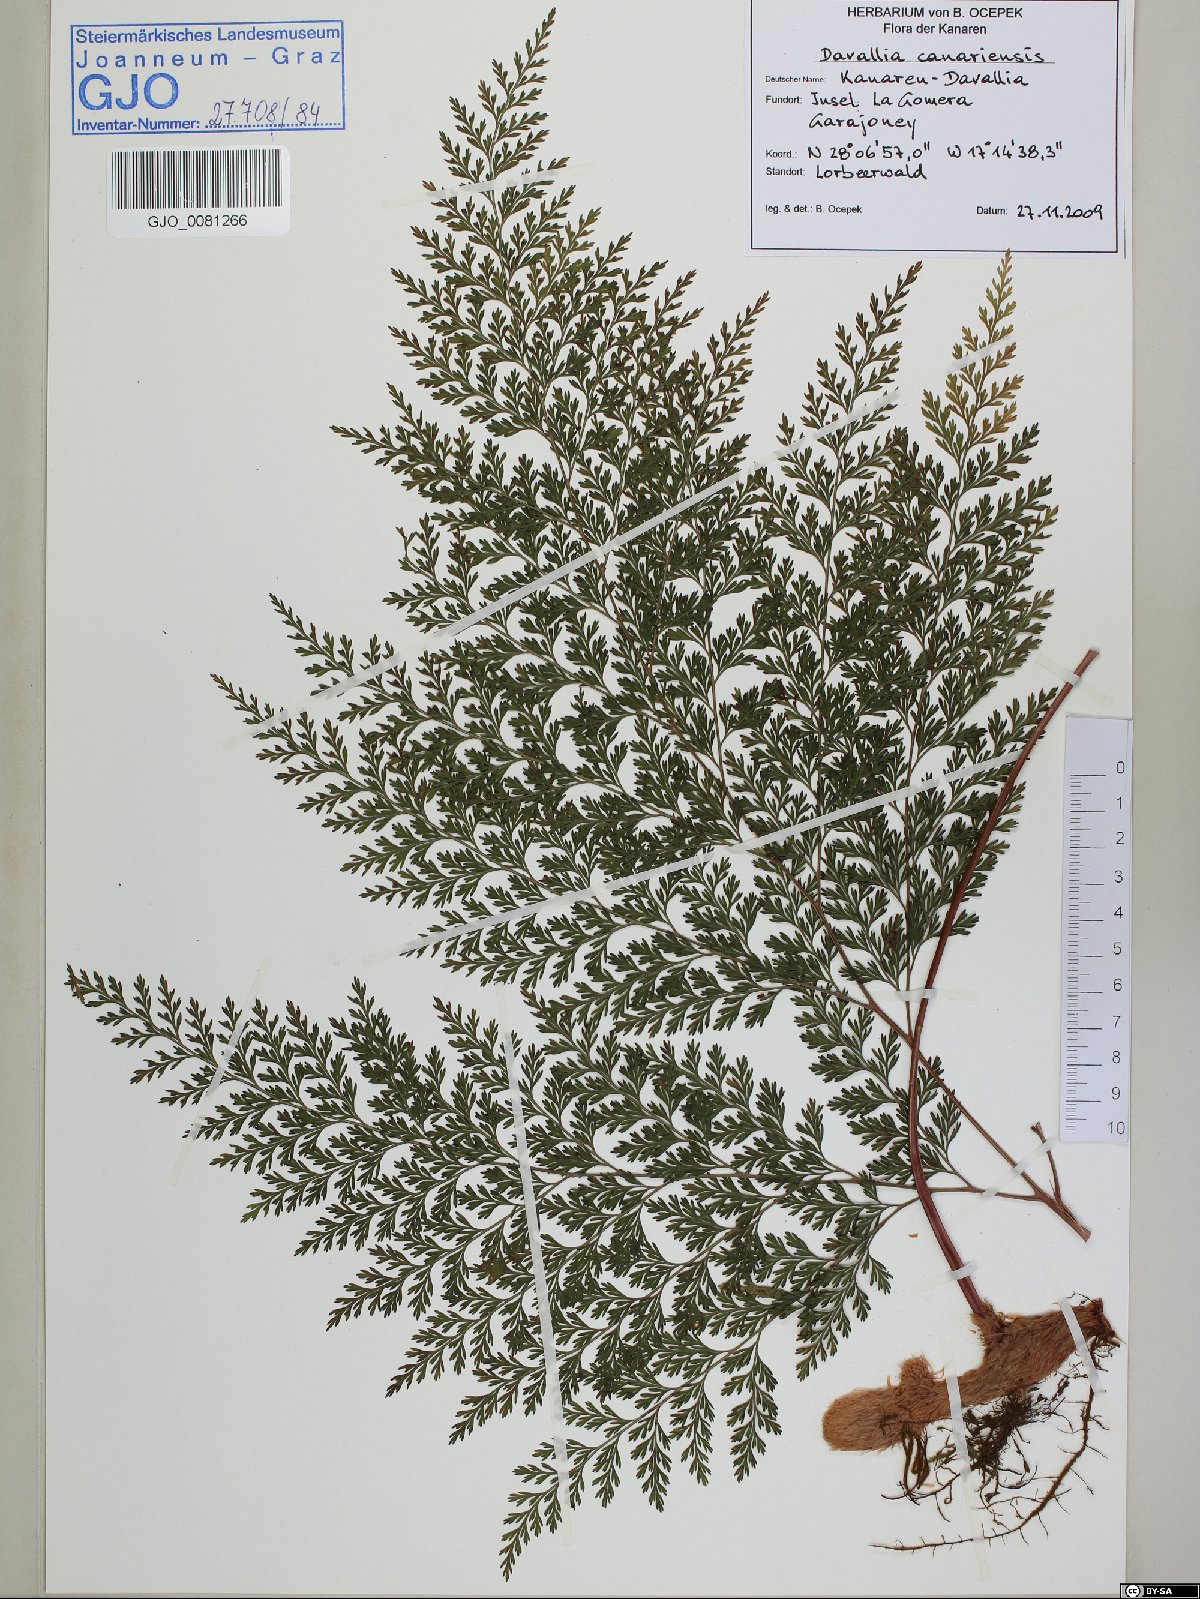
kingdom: Plantae
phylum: Tracheophyta
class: Polypodiopsida
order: Polypodiales
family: Davalliaceae
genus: Davallia
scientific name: Davallia canariensis
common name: Hare's-foot fern
